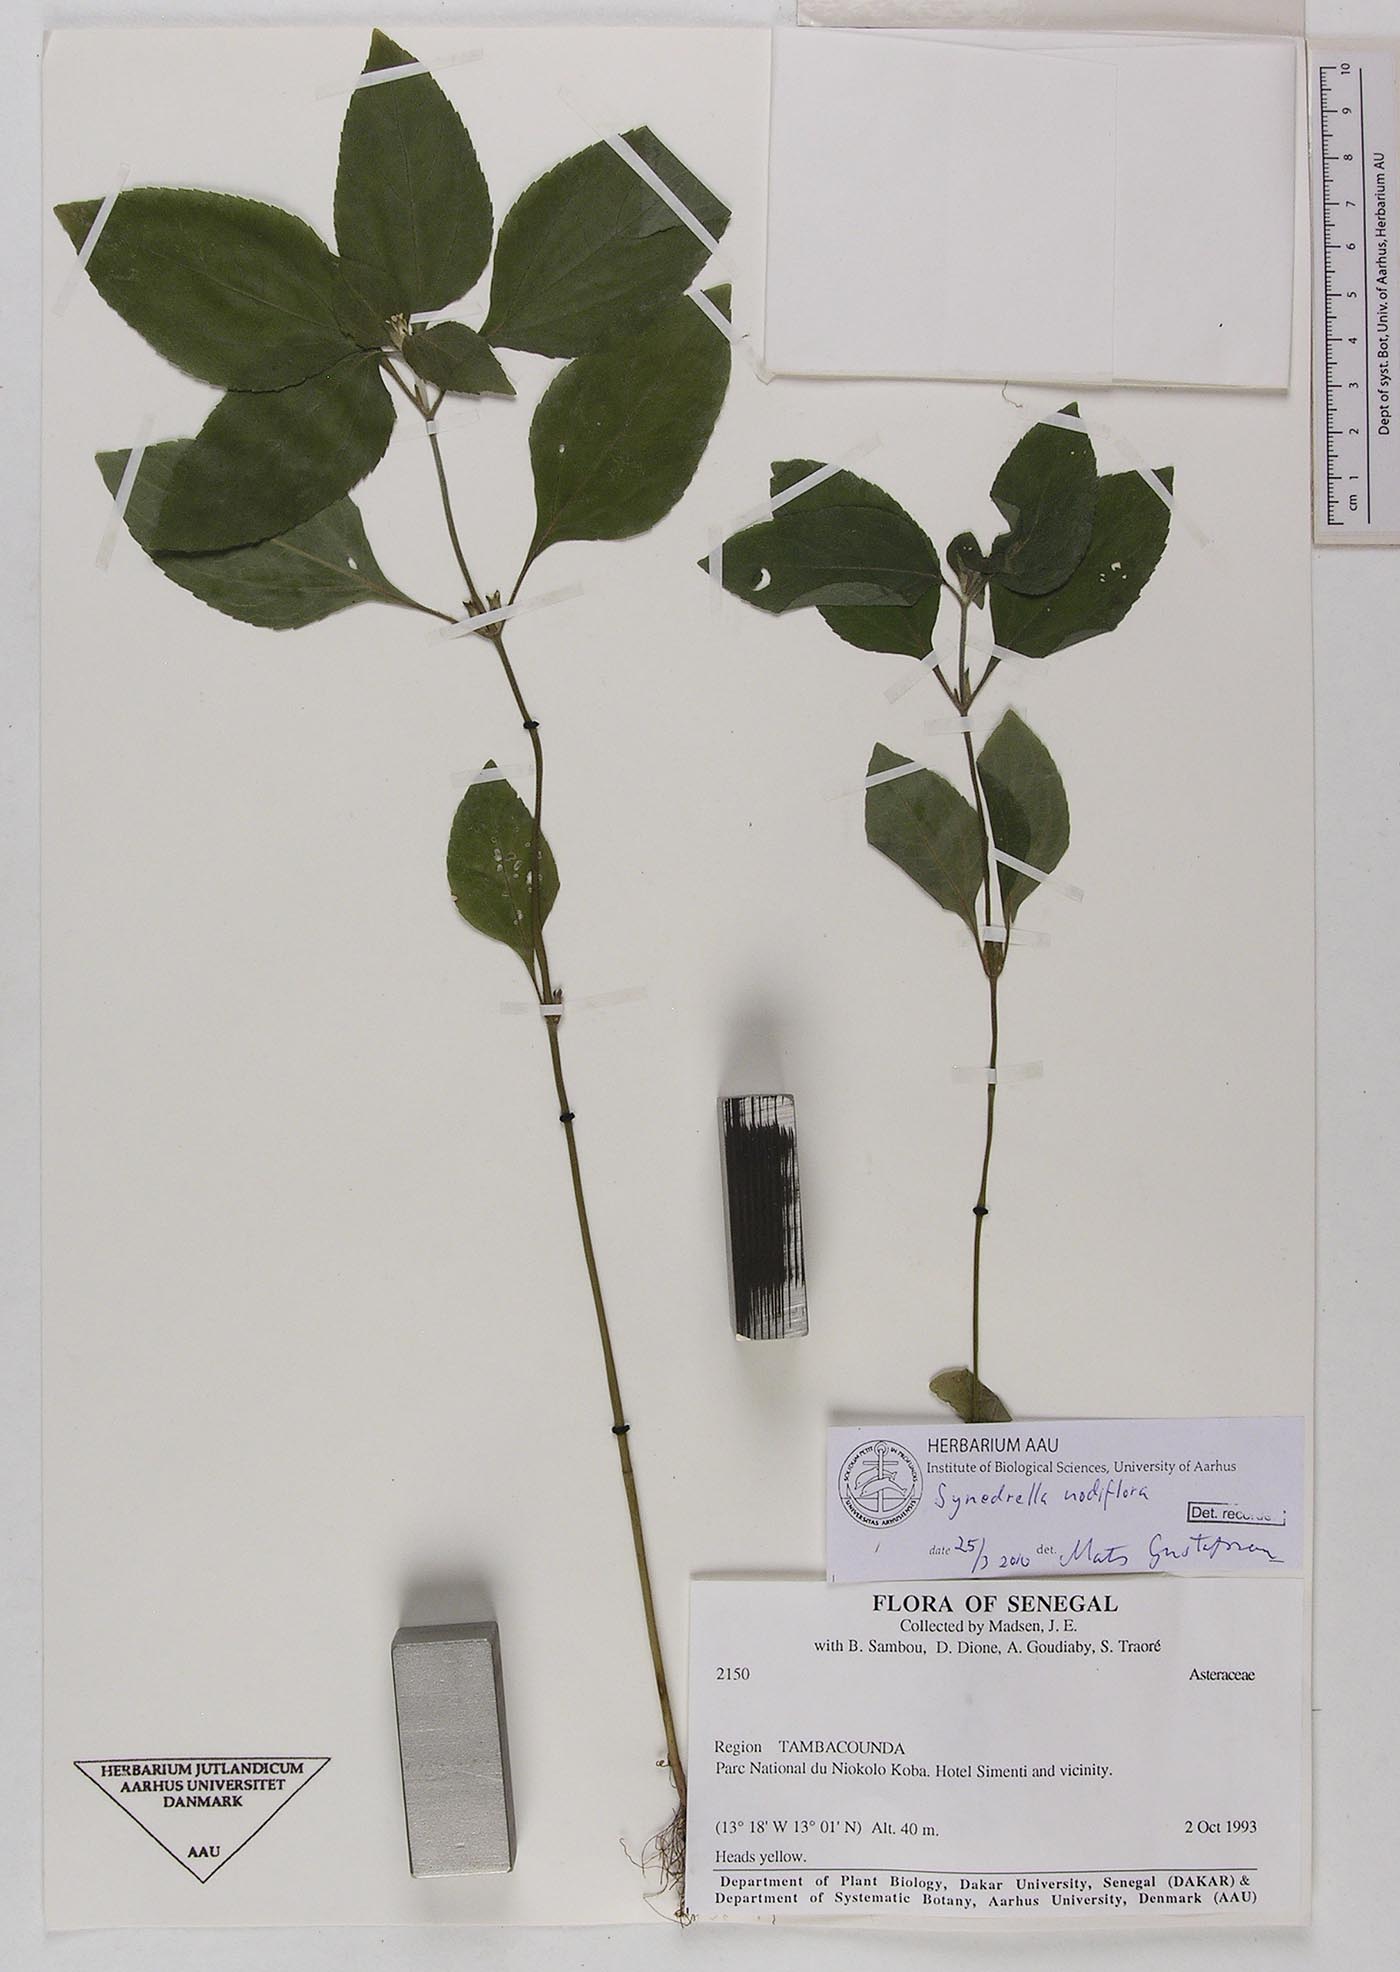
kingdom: Plantae
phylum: Tracheophyta
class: Magnoliopsida
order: Asterales
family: Asteraceae
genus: Synedrella
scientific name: Synedrella nodiflora
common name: Nodeweed
